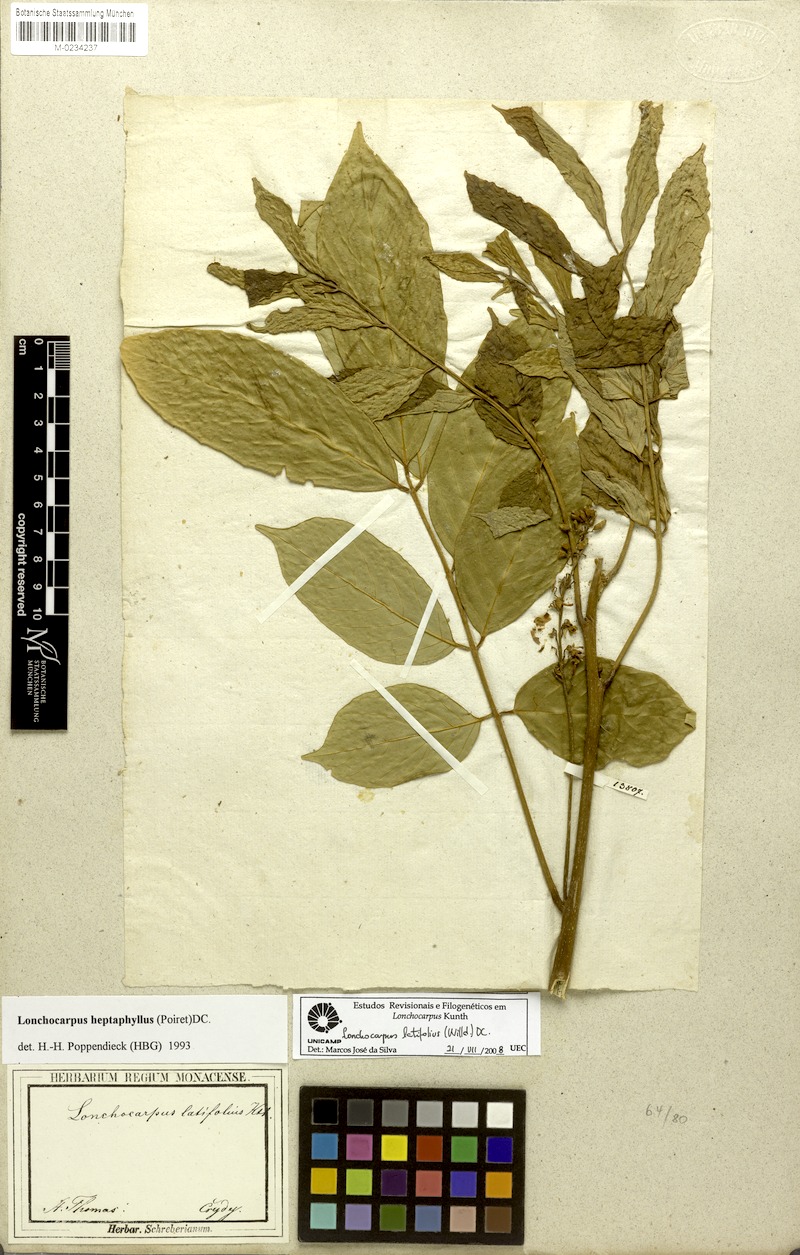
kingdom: Plantae
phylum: Tracheophyta
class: Magnoliopsida
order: Fabales
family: Fabaceae
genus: Lonchocarpus
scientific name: Lonchocarpus heptaphyllus
